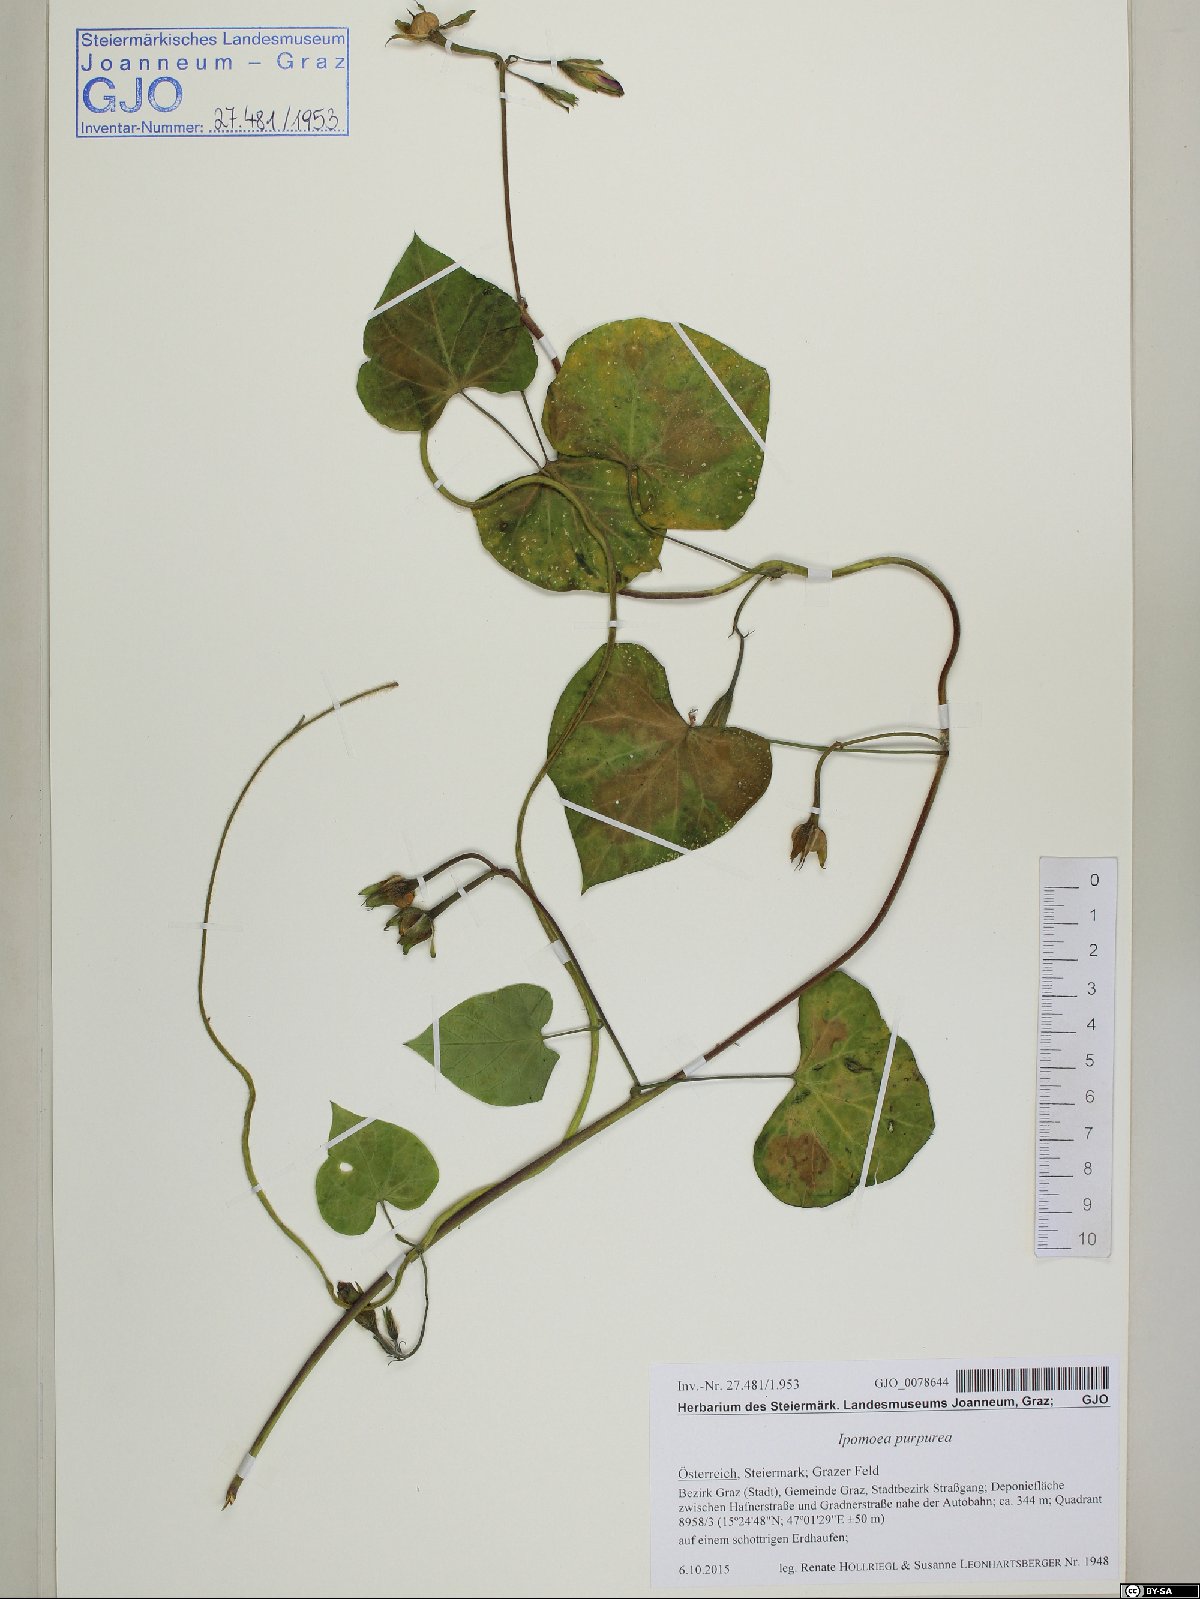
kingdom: Plantae
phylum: Tracheophyta
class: Magnoliopsida
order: Solanales
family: Convolvulaceae
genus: Ipomoea
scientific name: Ipomoea purpurea
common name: Common morning-glory
